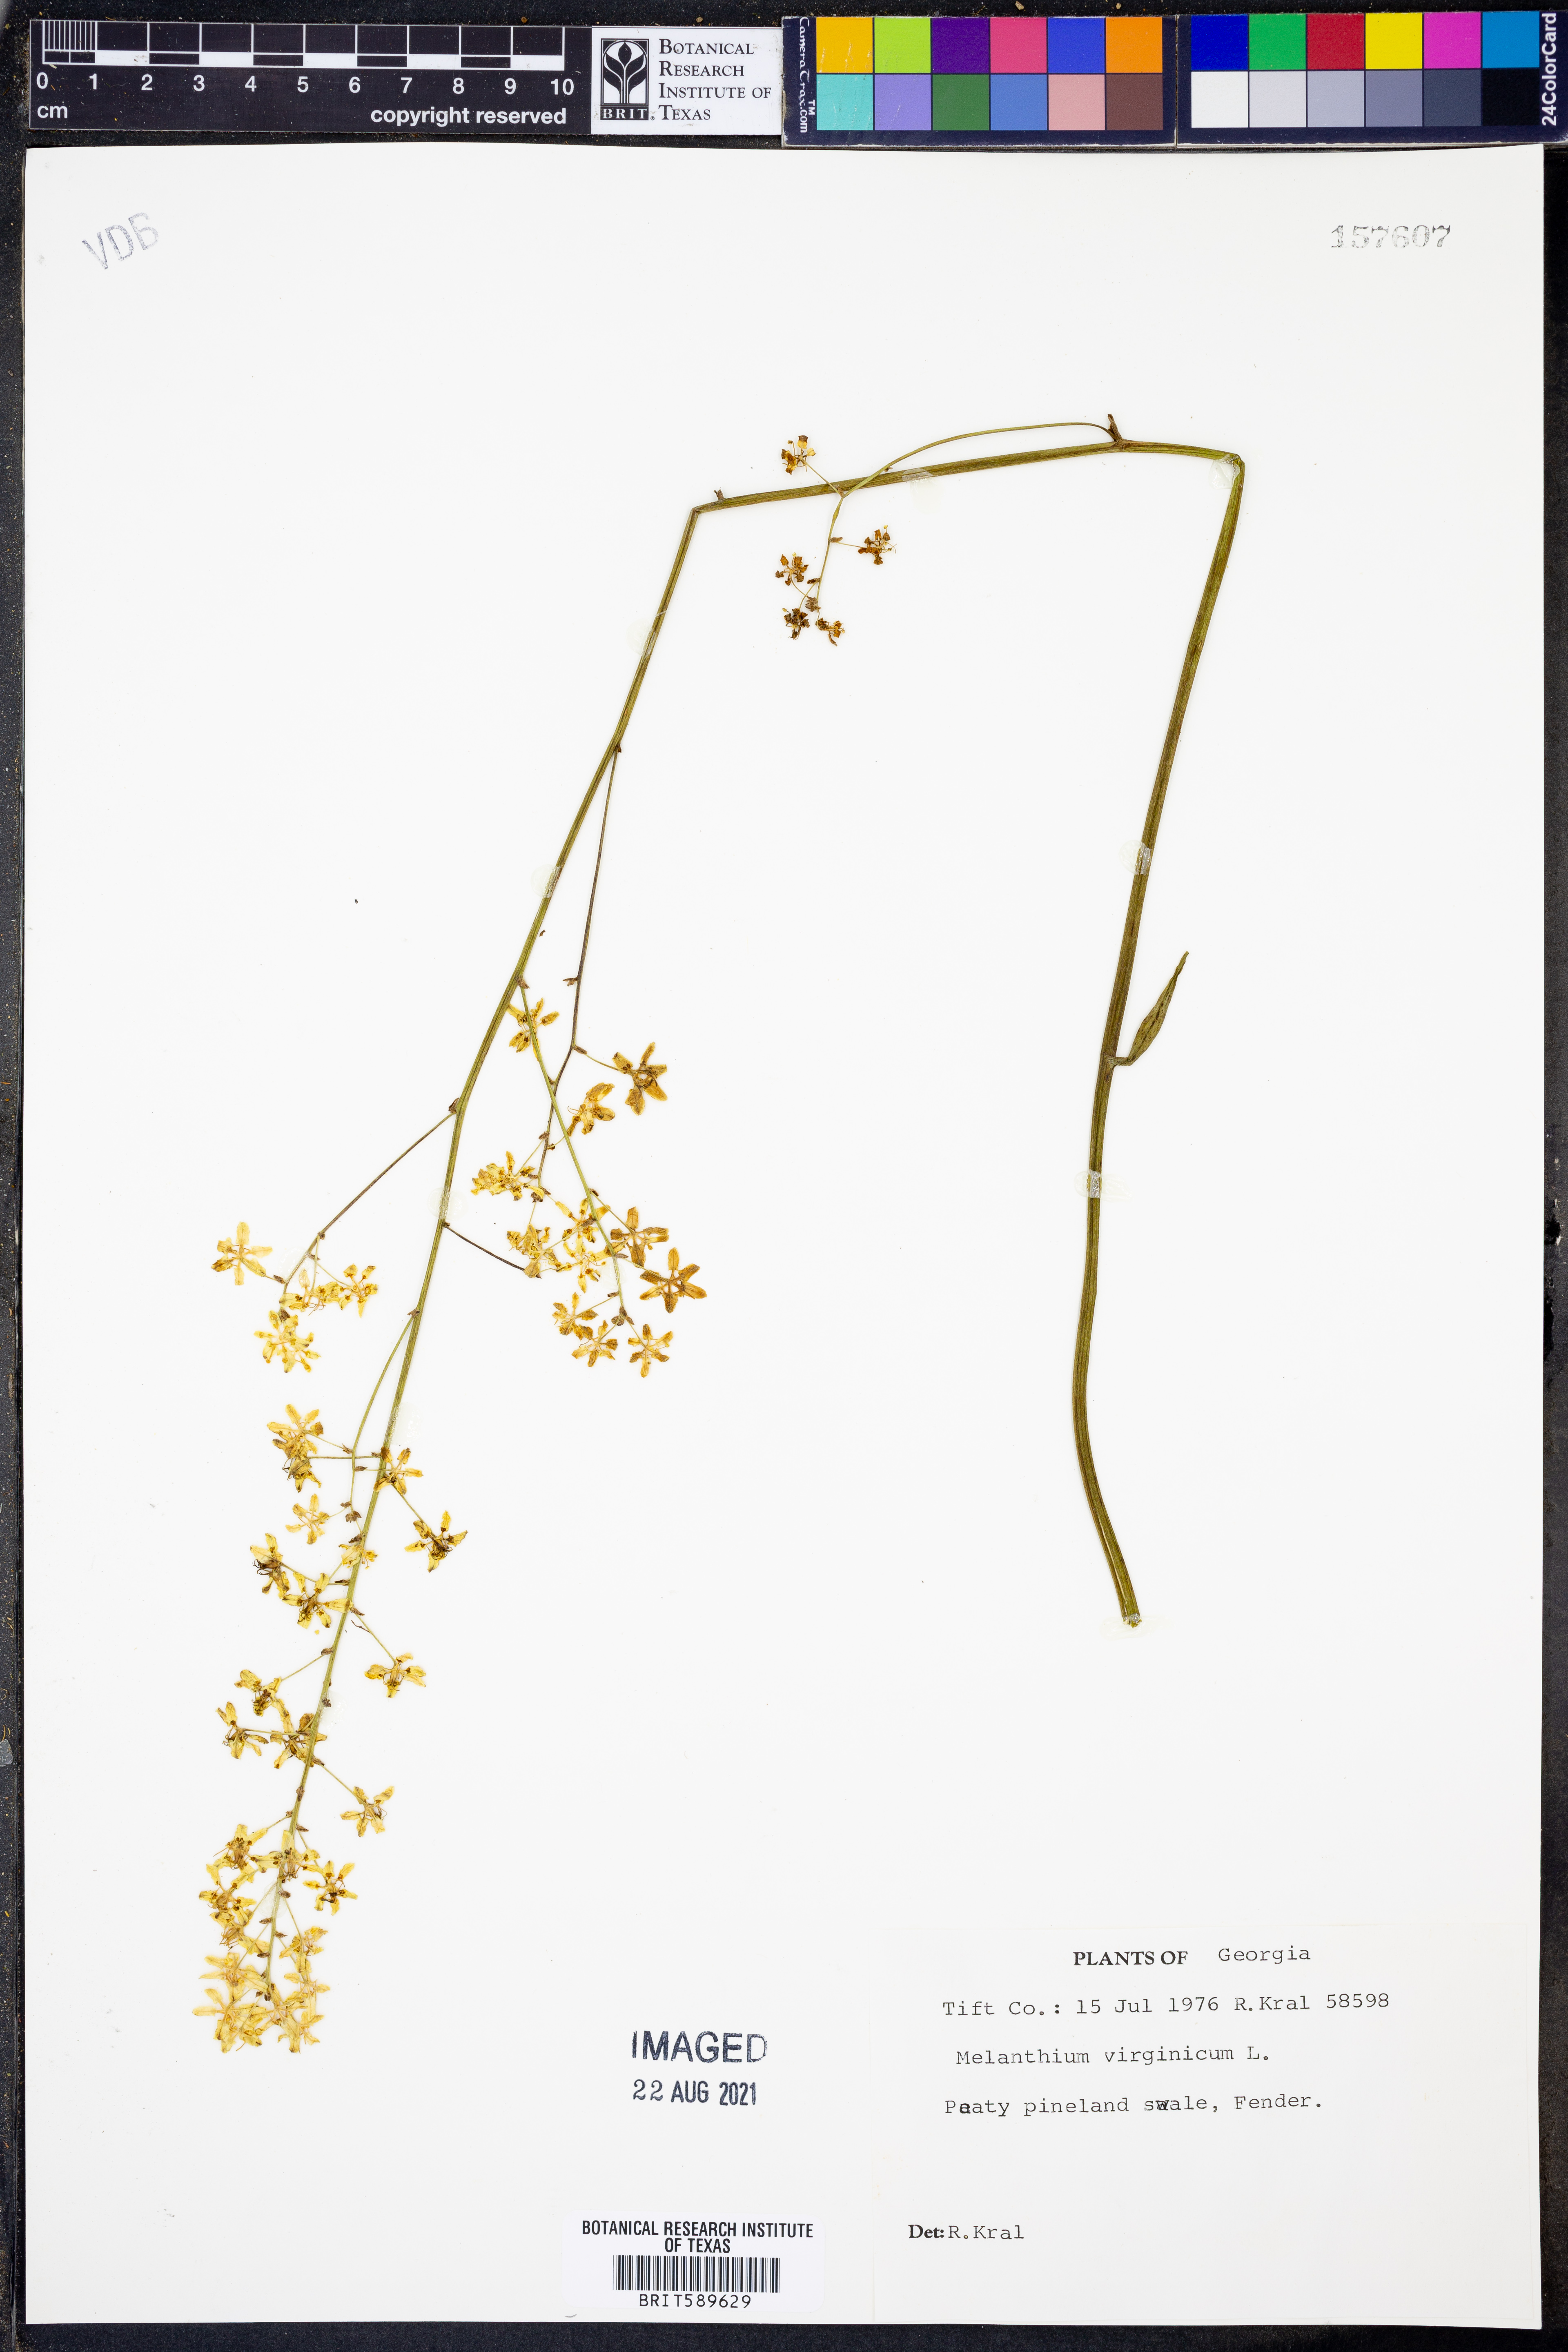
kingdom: Plantae
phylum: Tracheophyta
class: Liliopsida
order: Liliales
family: Melanthiaceae
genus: Melanthium
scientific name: Melanthium virginicum
